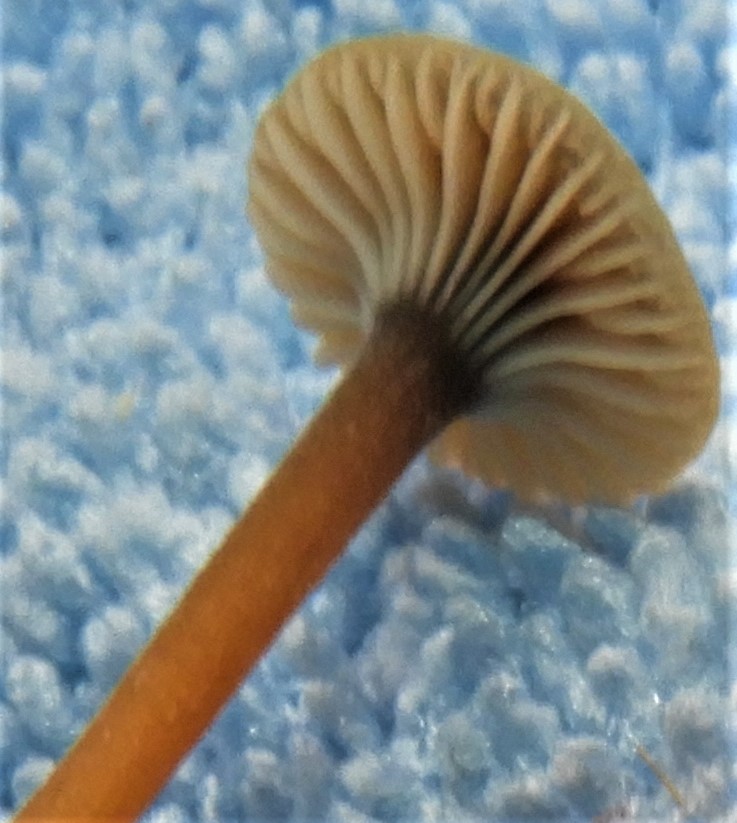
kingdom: Fungi
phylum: Basidiomycota
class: Agaricomycetes
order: Hymenochaetales
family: Rickenellaceae
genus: Rickenella
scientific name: Rickenella swartzii
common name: finstokket mosnavlehat
